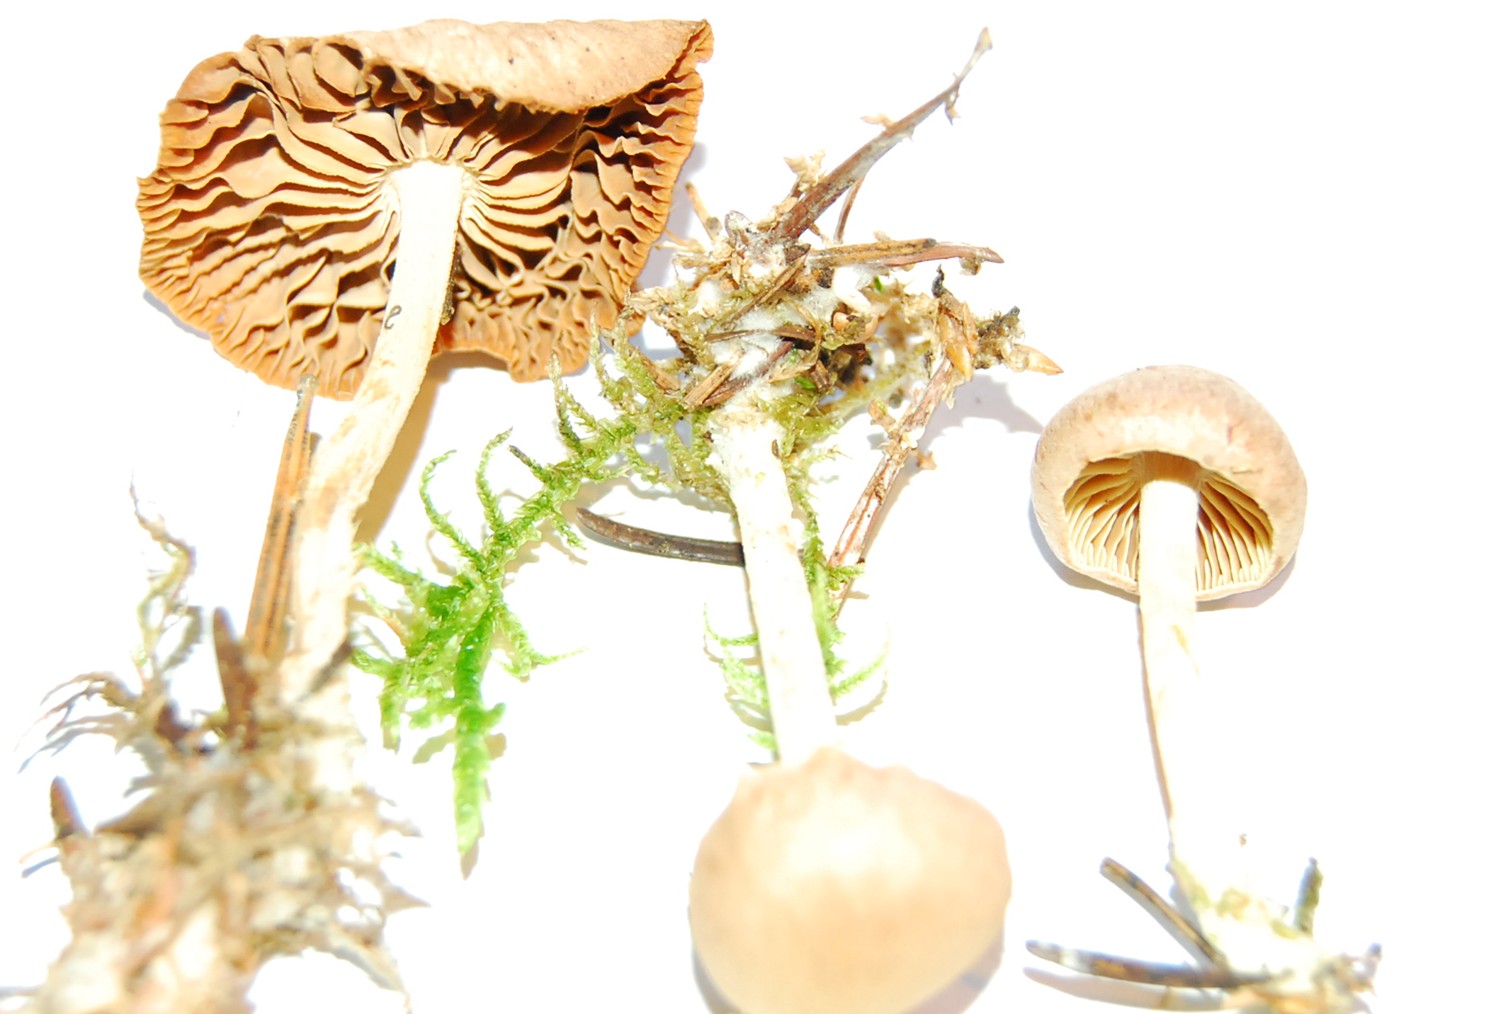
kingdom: Fungi
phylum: Basidiomycota
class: Agaricomycetes
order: Agaricales
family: Omphalotaceae
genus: Collybiopsis
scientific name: Collybiopsis peronata
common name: bestøvlet fladhat
